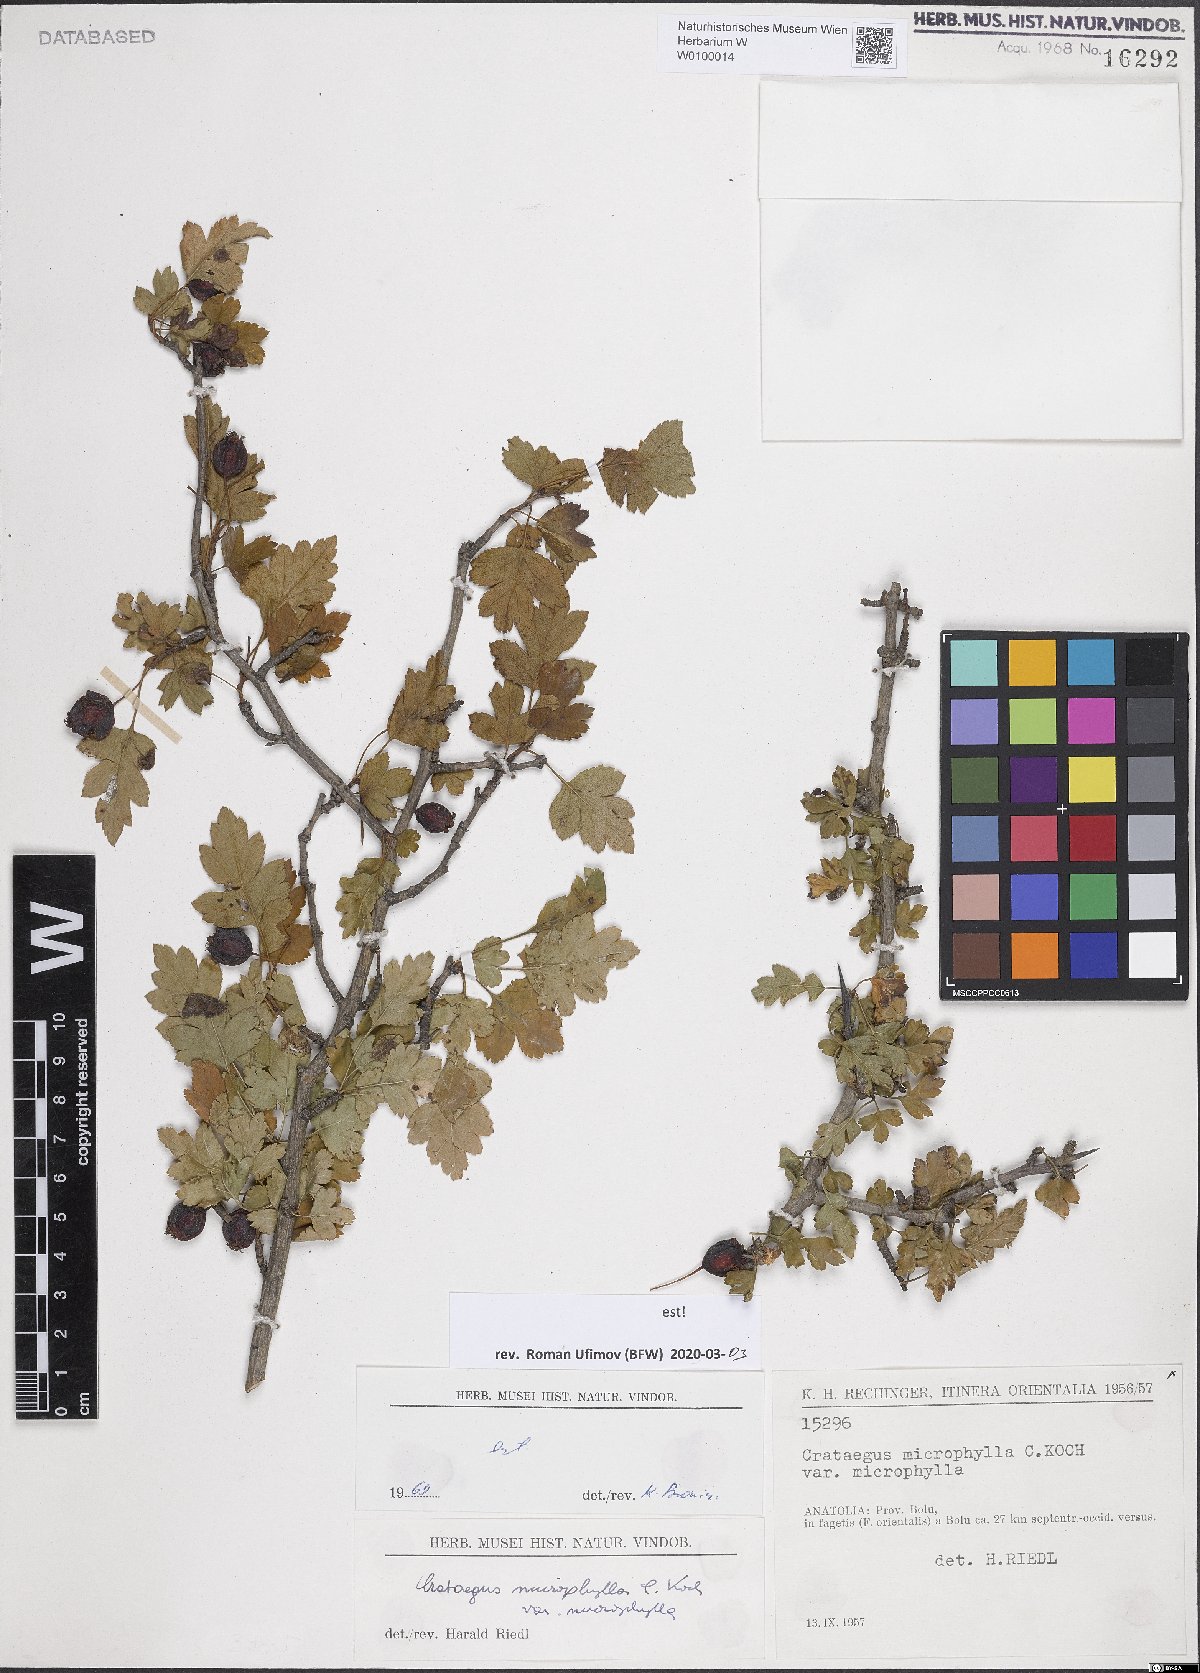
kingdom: Plantae
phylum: Tracheophyta
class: Magnoliopsida
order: Rosales
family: Rosaceae
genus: Crataegus
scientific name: Crataegus microphylla
